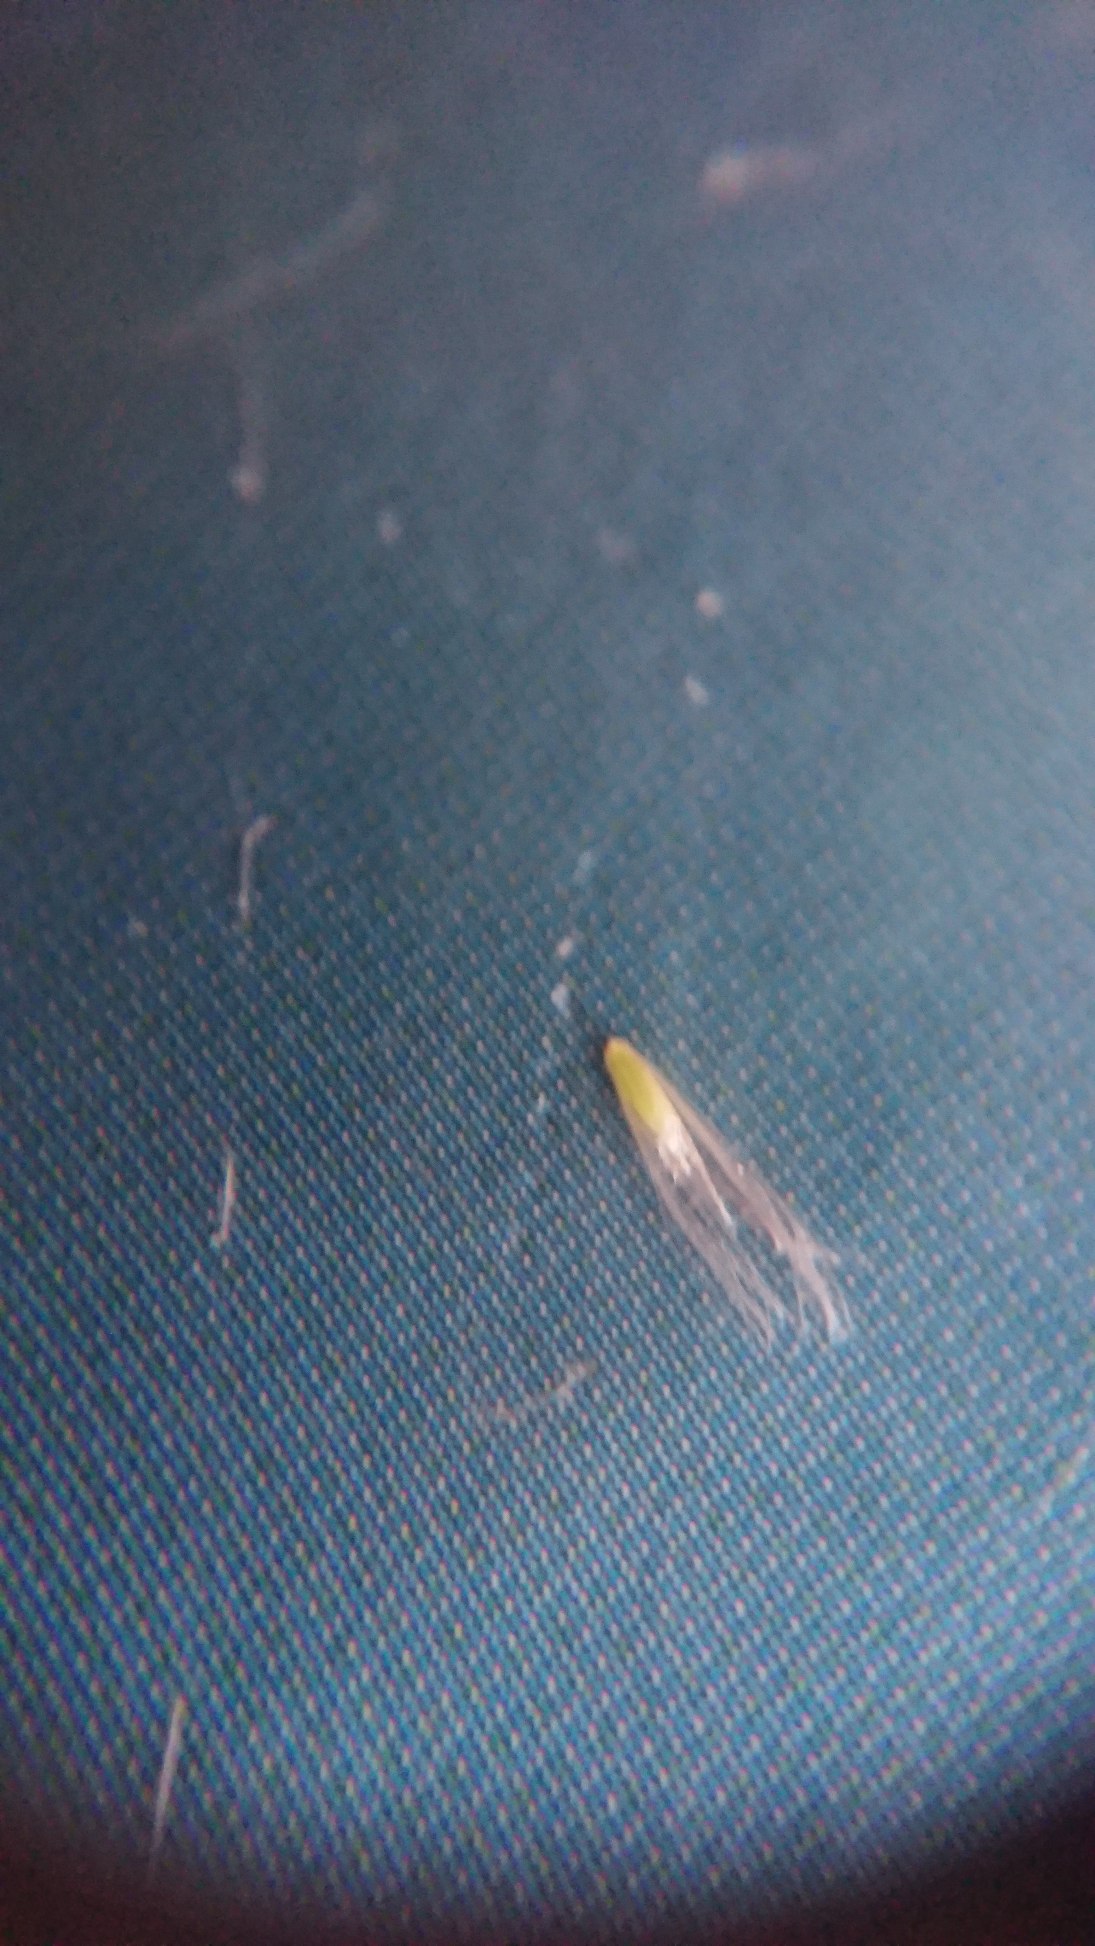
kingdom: Plantae
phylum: Tracheophyta
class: Liliopsida
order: Poales
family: Poaceae
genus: Calamagrostis
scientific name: Calamagrostis epigejos
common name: Bjerg-rørhvene
